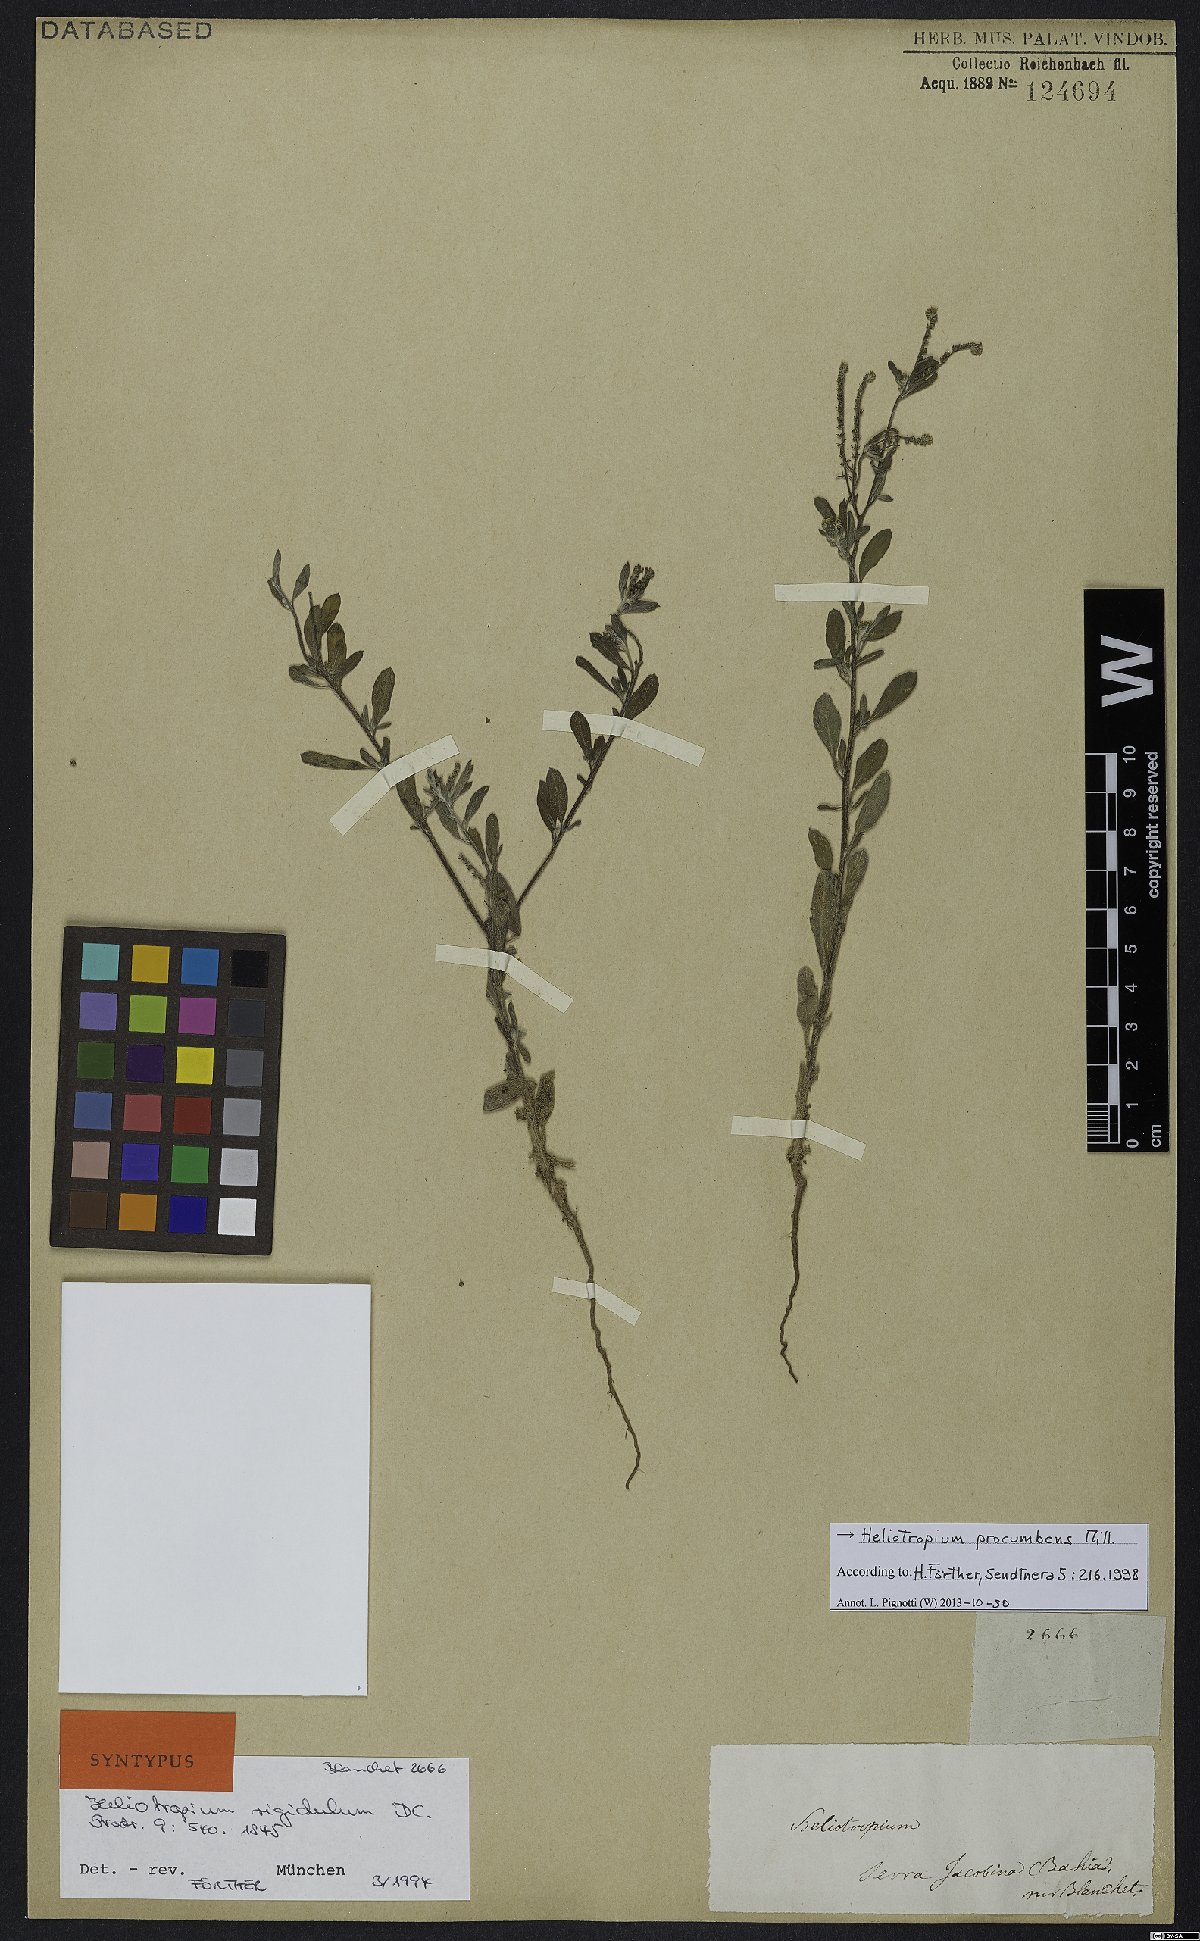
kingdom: Plantae
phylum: Tracheophyta
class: Magnoliopsida
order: Boraginales
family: Heliotropiaceae
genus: Euploca
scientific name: Euploca procumbens
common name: Fourspike heliotrope
